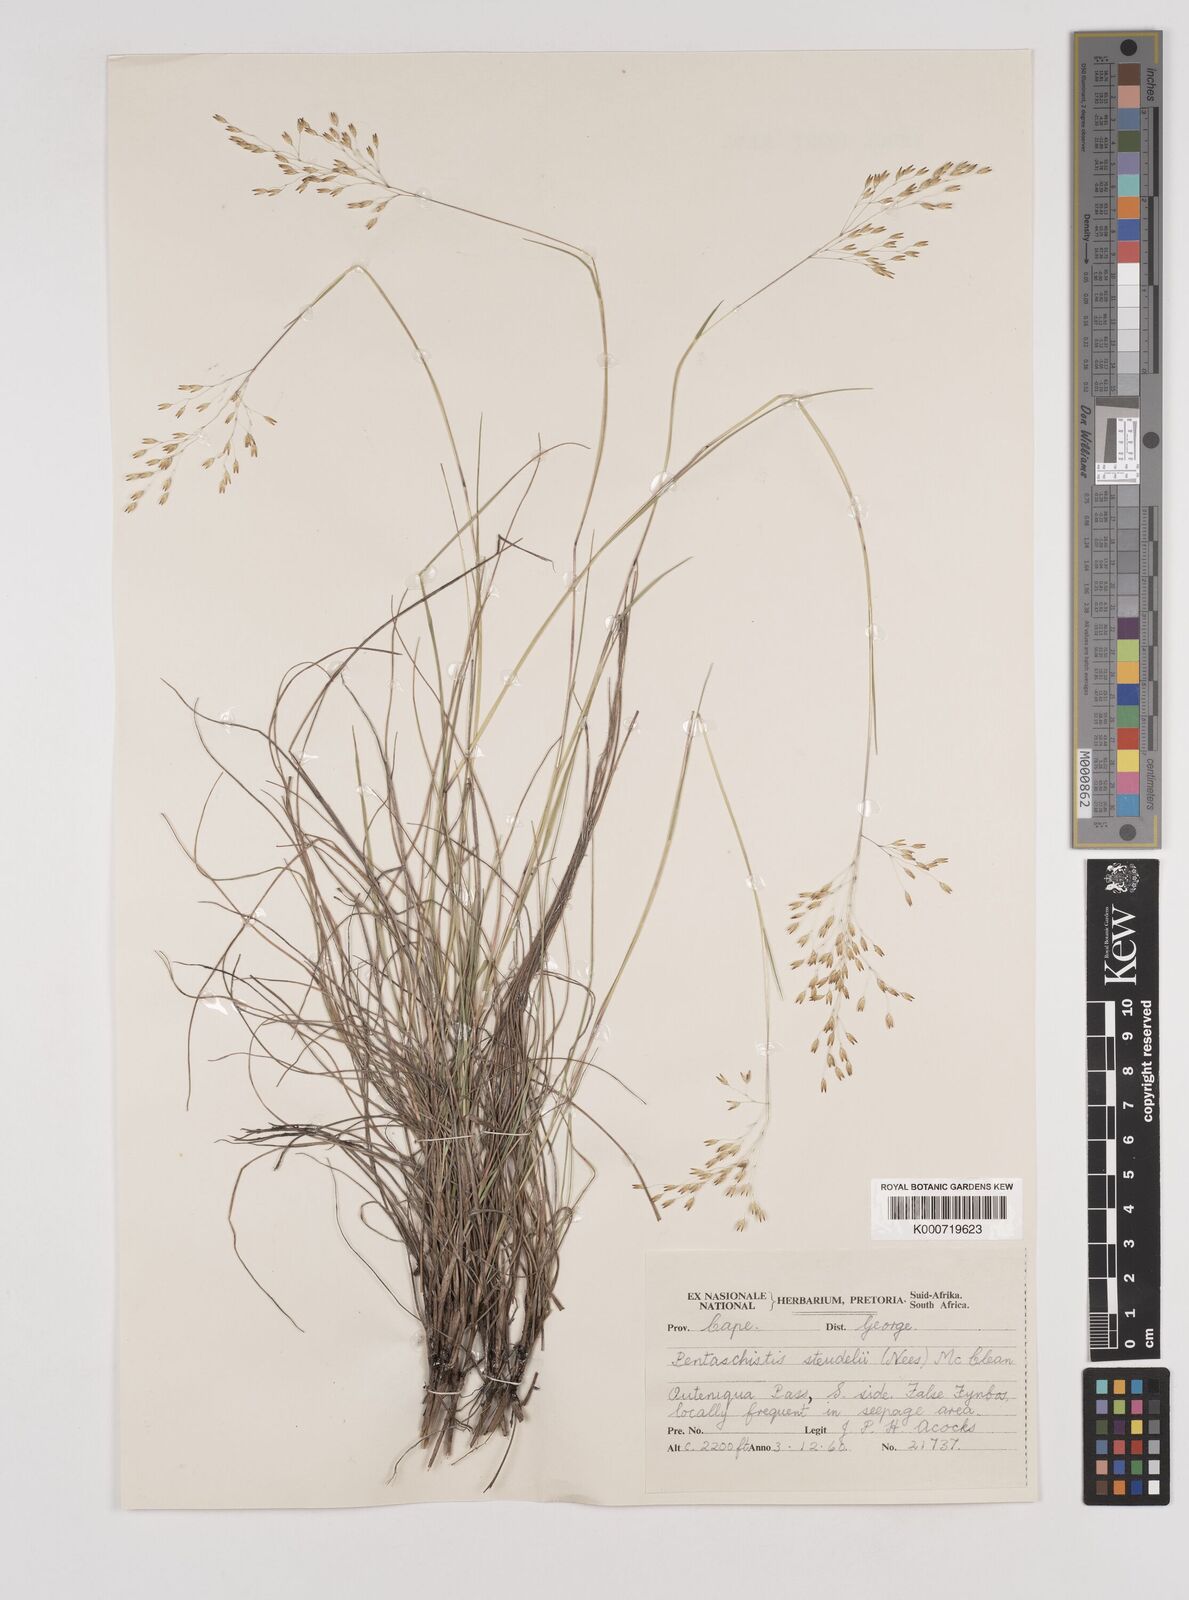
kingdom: Plantae
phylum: Tracheophyta
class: Liliopsida
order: Poales
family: Poaceae
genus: Pentameris
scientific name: Pentameris malouinensis
